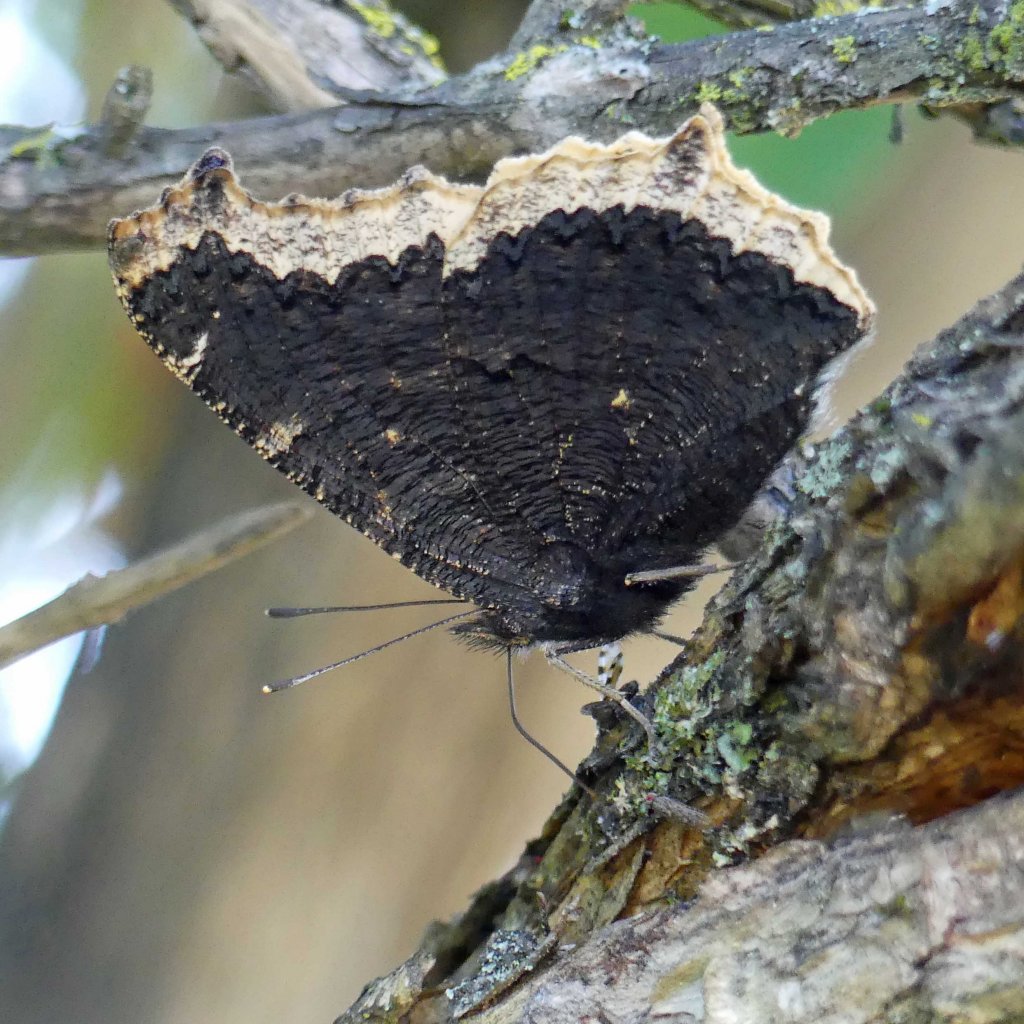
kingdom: Animalia
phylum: Arthropoda
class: Insecta
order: Lepidoptera
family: Nymphalidae
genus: Nymphalis
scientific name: Nymphalis antiopa
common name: Mourning Cloak
